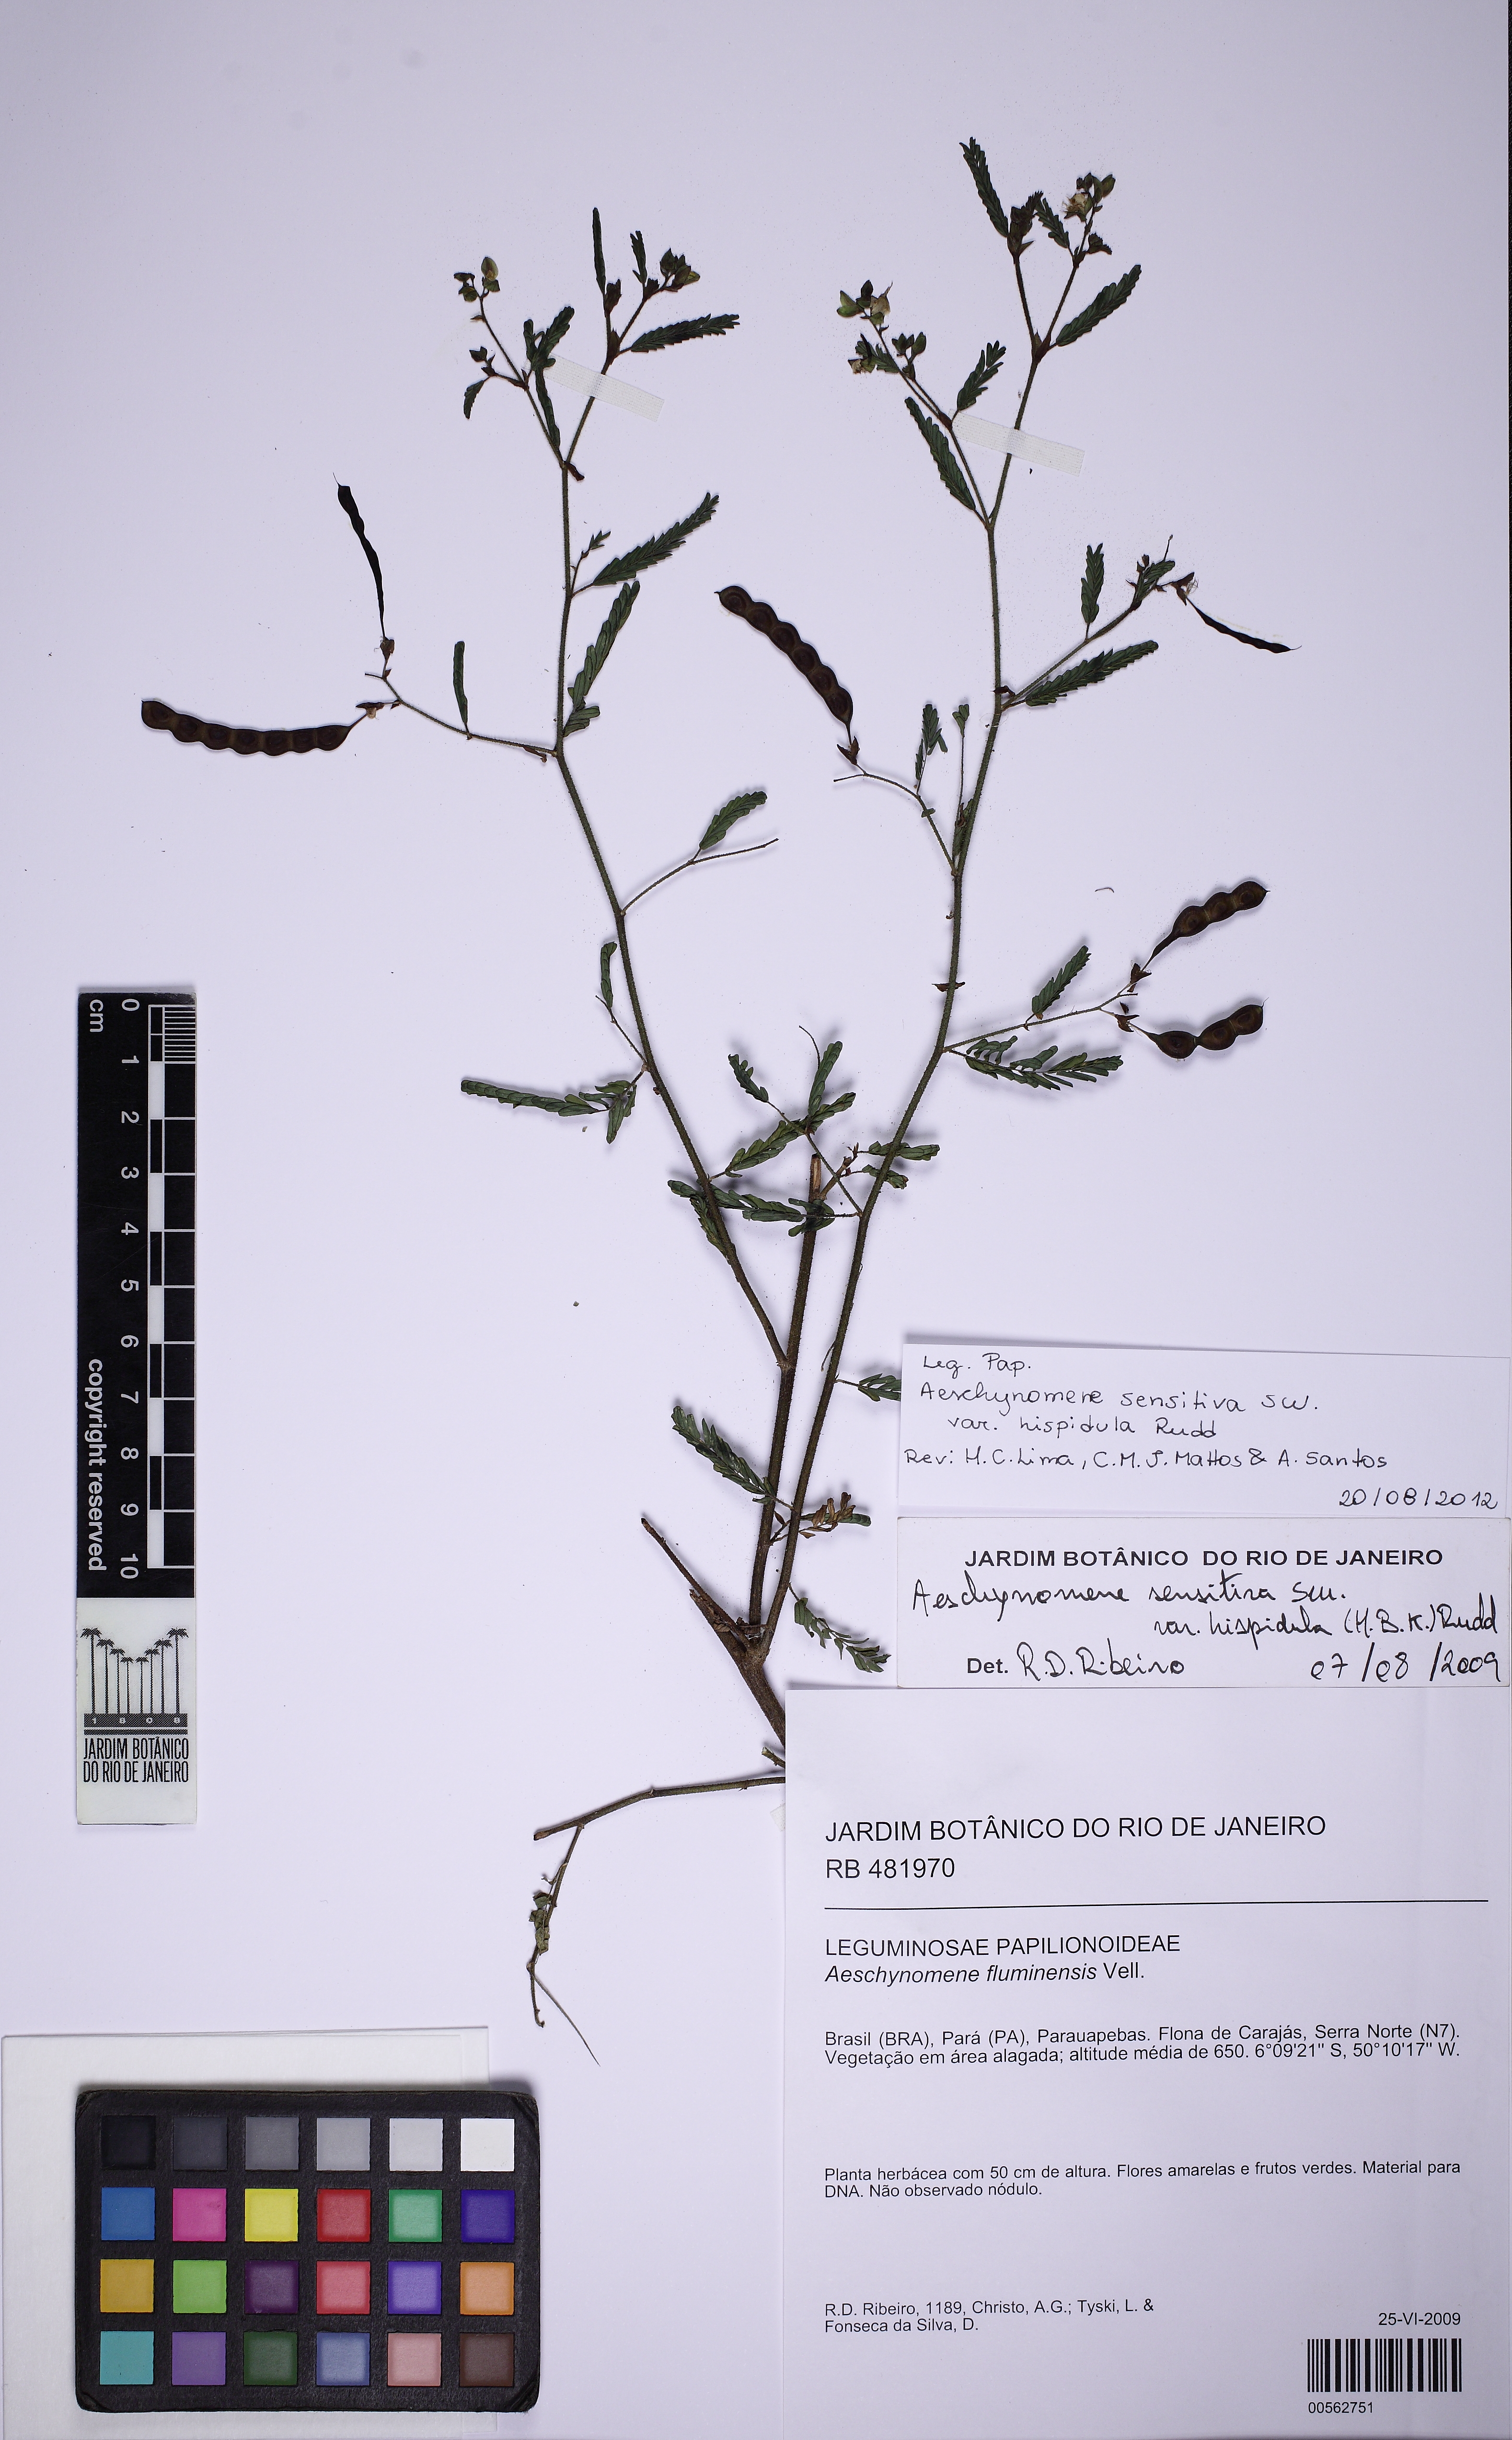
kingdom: Plantae
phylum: Tracheophyta
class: Magnoliopsida
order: Fabales
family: Fabaceae
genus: Aeschynomene
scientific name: Aeschynomene rudis
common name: Rough joint-vetch
